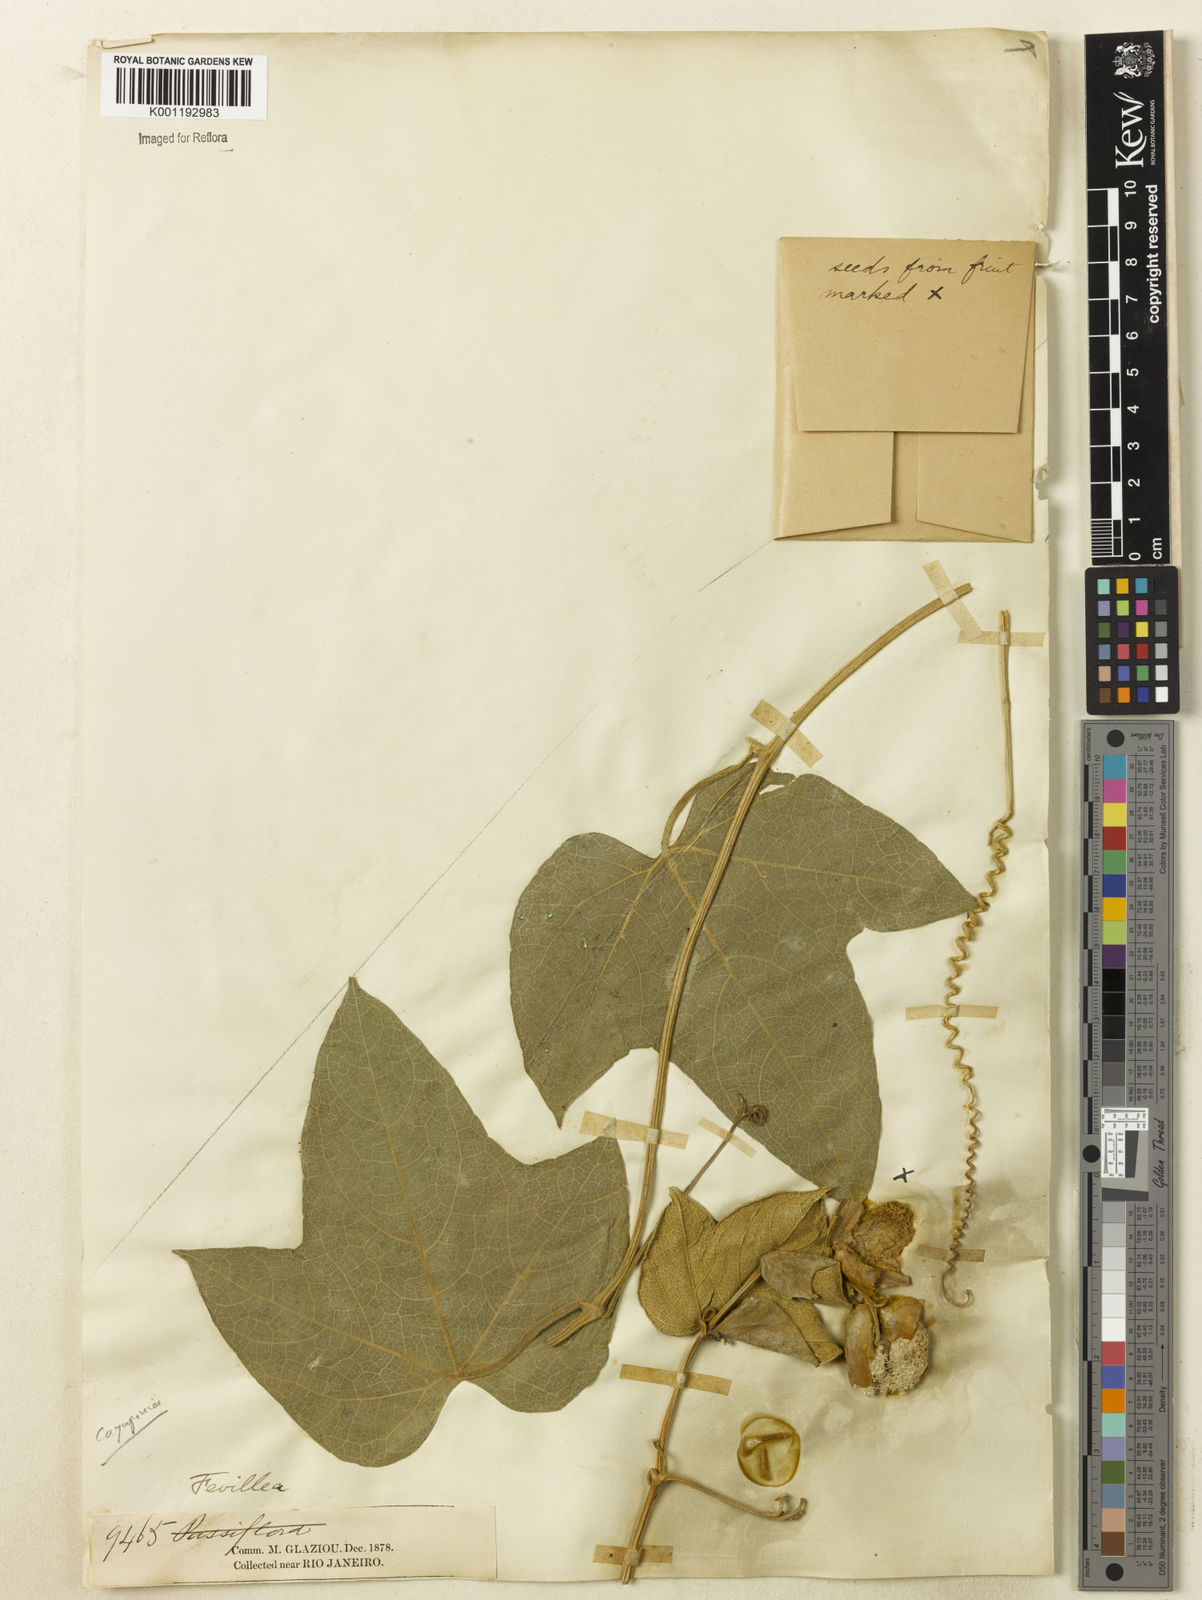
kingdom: Plantae
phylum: Tracheophyta
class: Magnoliopsida
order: Cucurbitales
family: Cucurbitaceae
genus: Cayaponia
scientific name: Cayaponia trilobata
